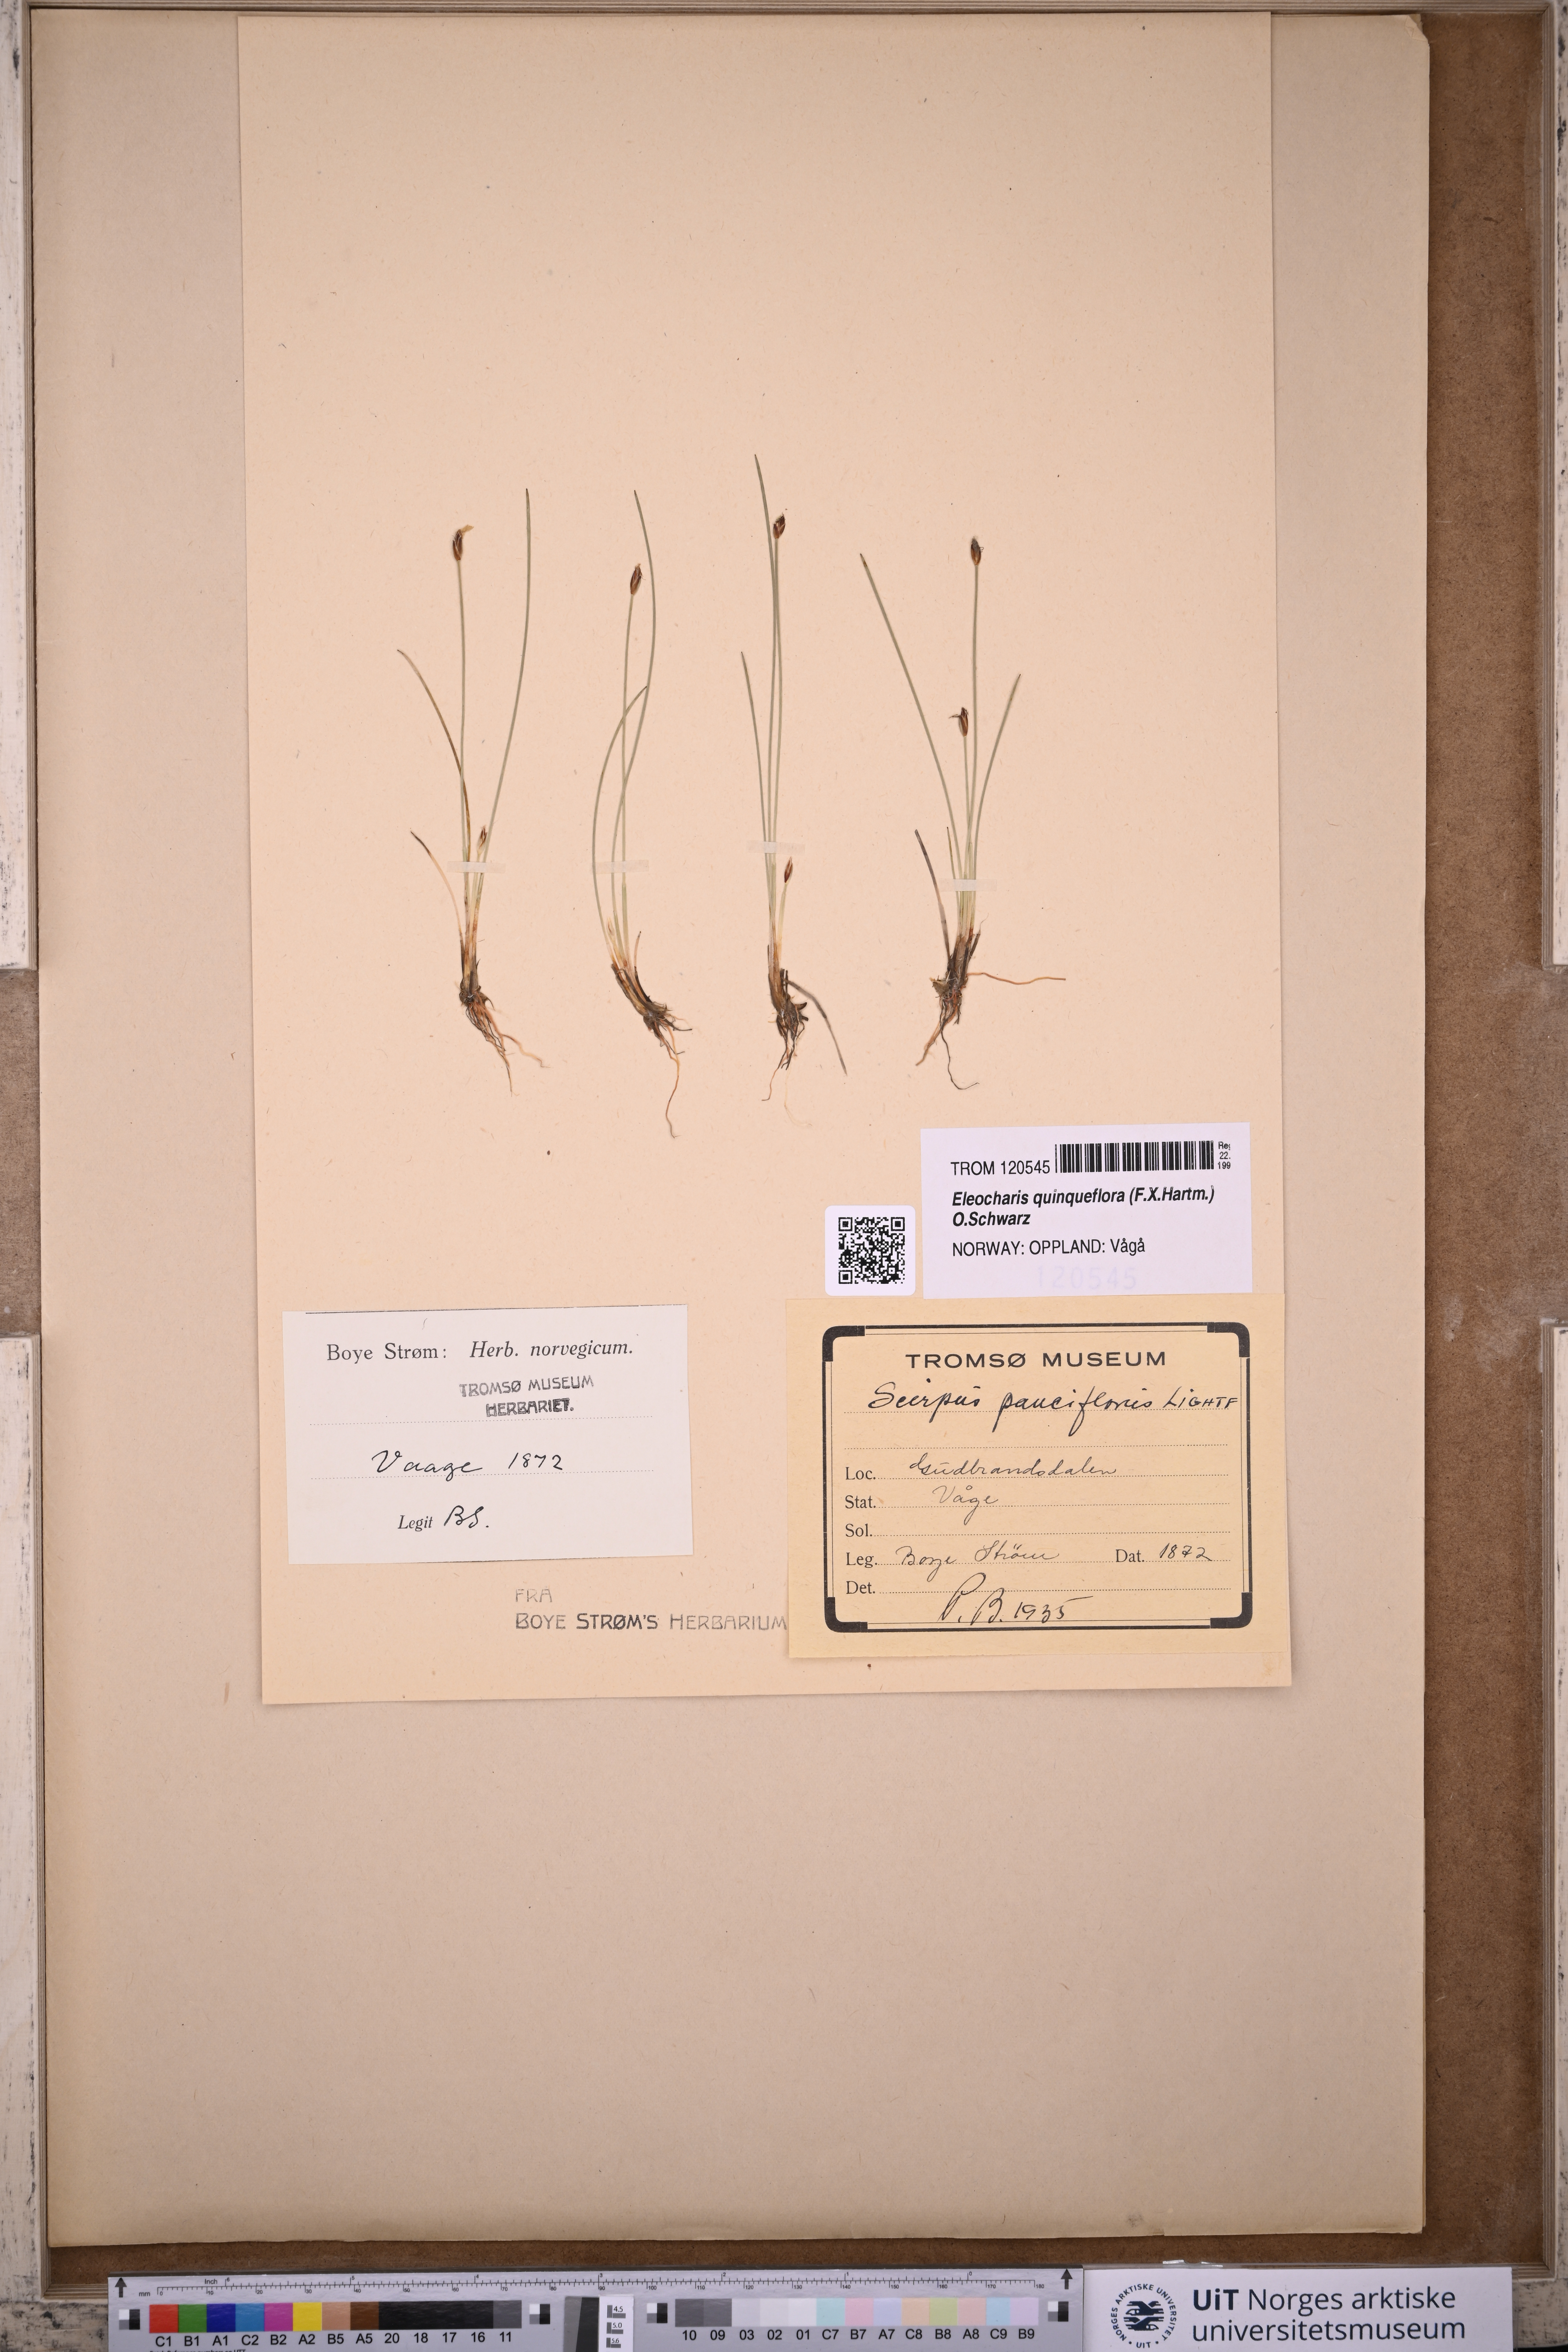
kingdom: Plantae
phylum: Tracheophyta
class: Liliopsida
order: Poales
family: Cyperaceae
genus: Eleocharis
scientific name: Eleocharis quinqueflora
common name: Few-flowered spike-rush
